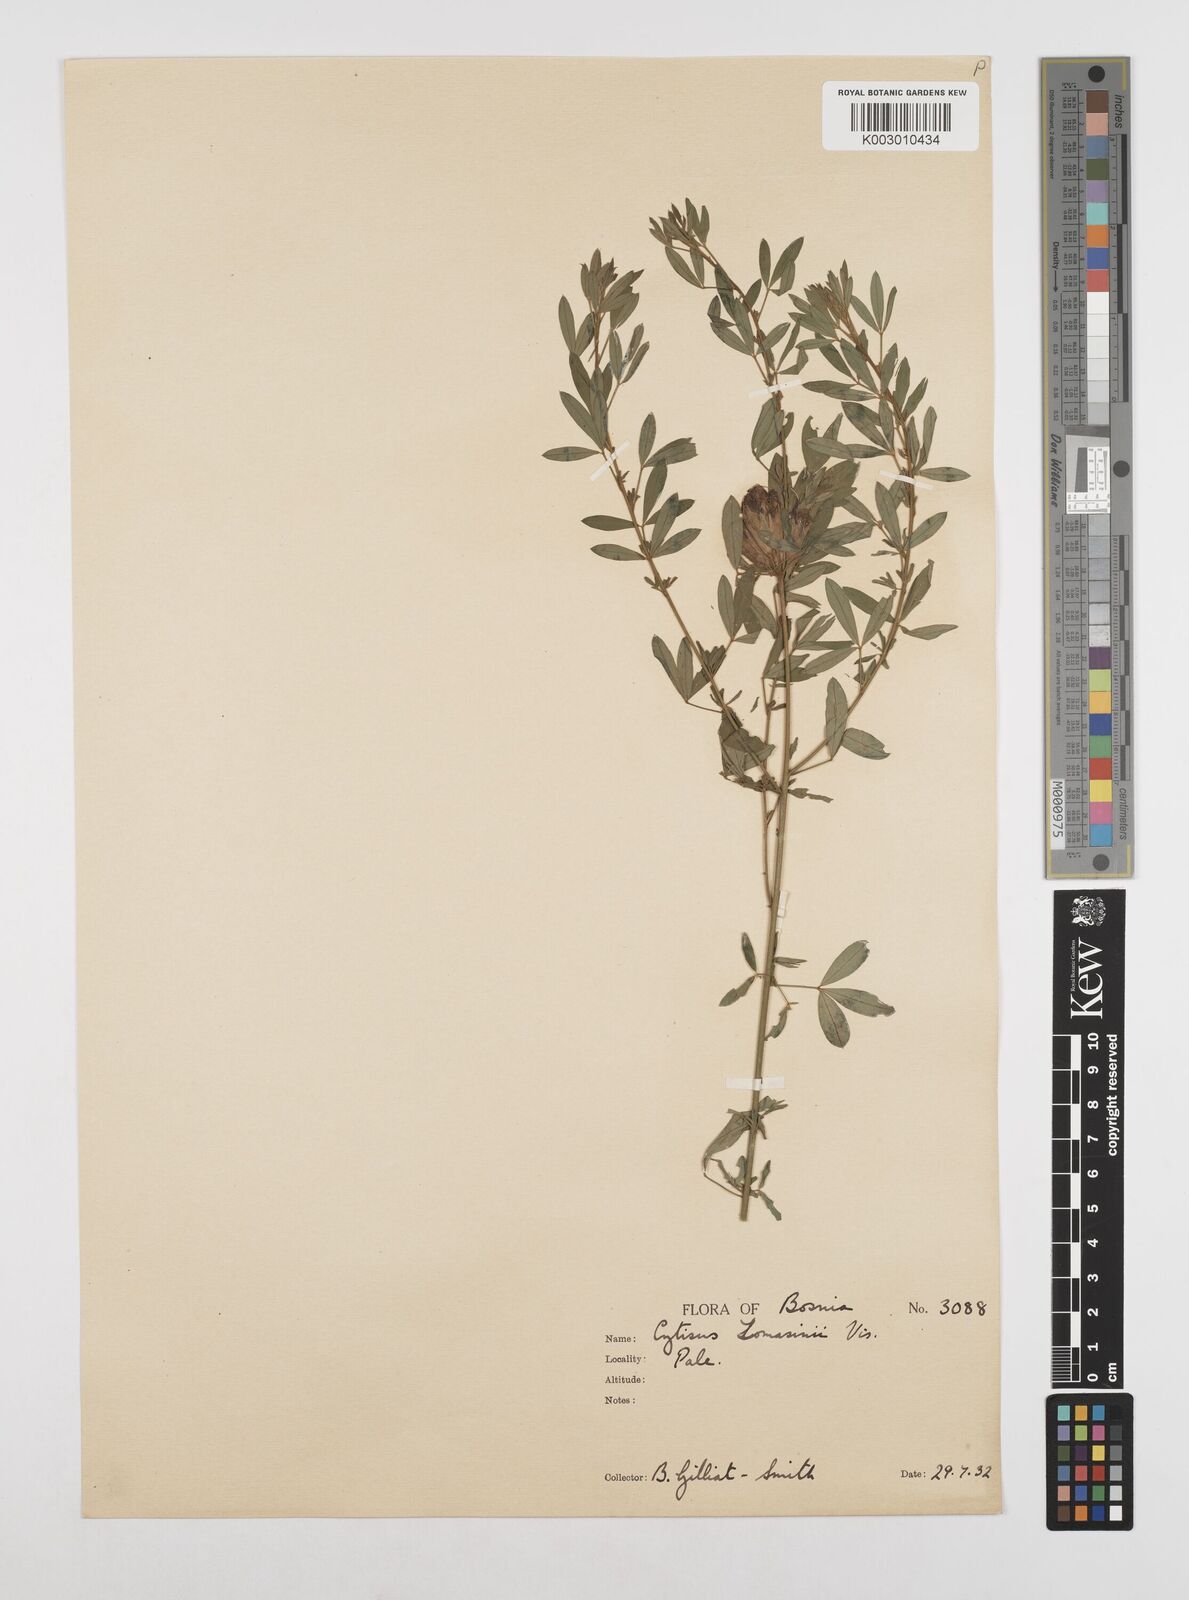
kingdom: Plantae
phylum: Tracheophyta
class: Magnoliopsida
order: Fabales
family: Fabaceae
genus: Chamaecytisus
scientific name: Chamaecytisus tommasinii
